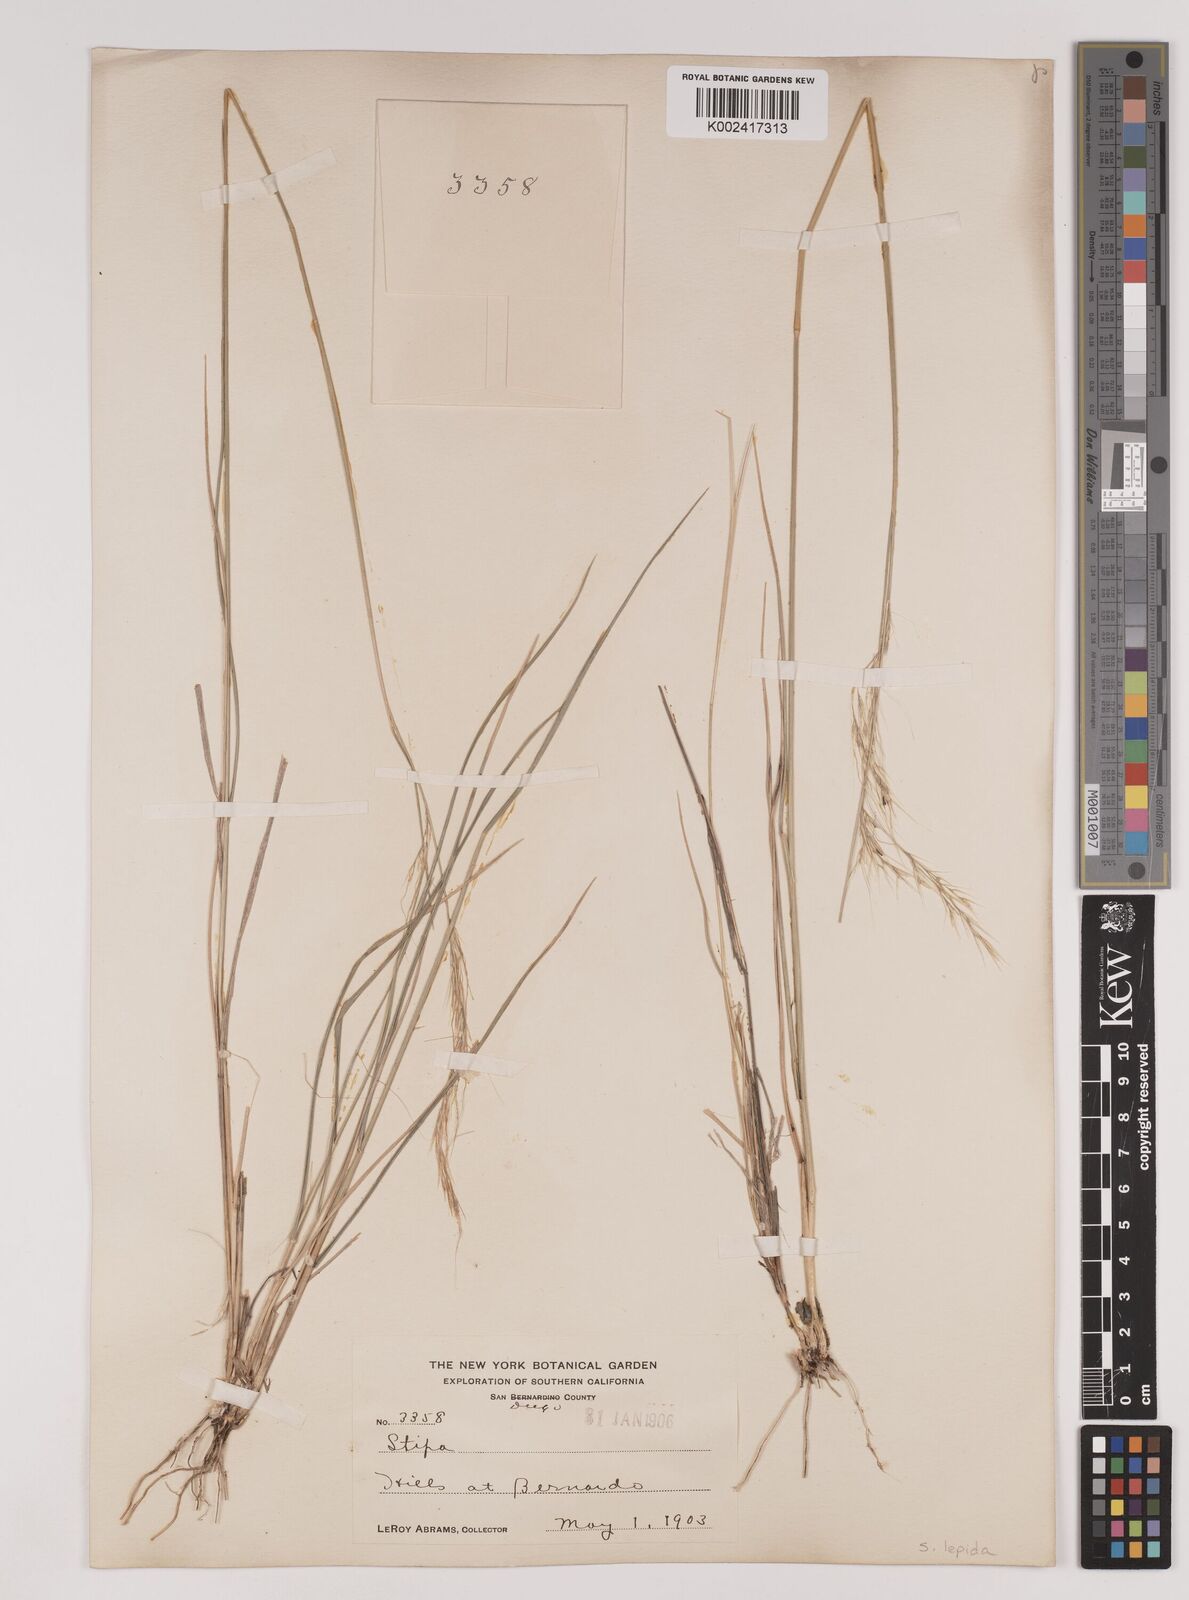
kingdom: Plantae
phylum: Tracheophyta
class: Liliopsida
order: Poales
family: Poaceae
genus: Nassella
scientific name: Nassella lepida
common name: Foothill needlegrass
